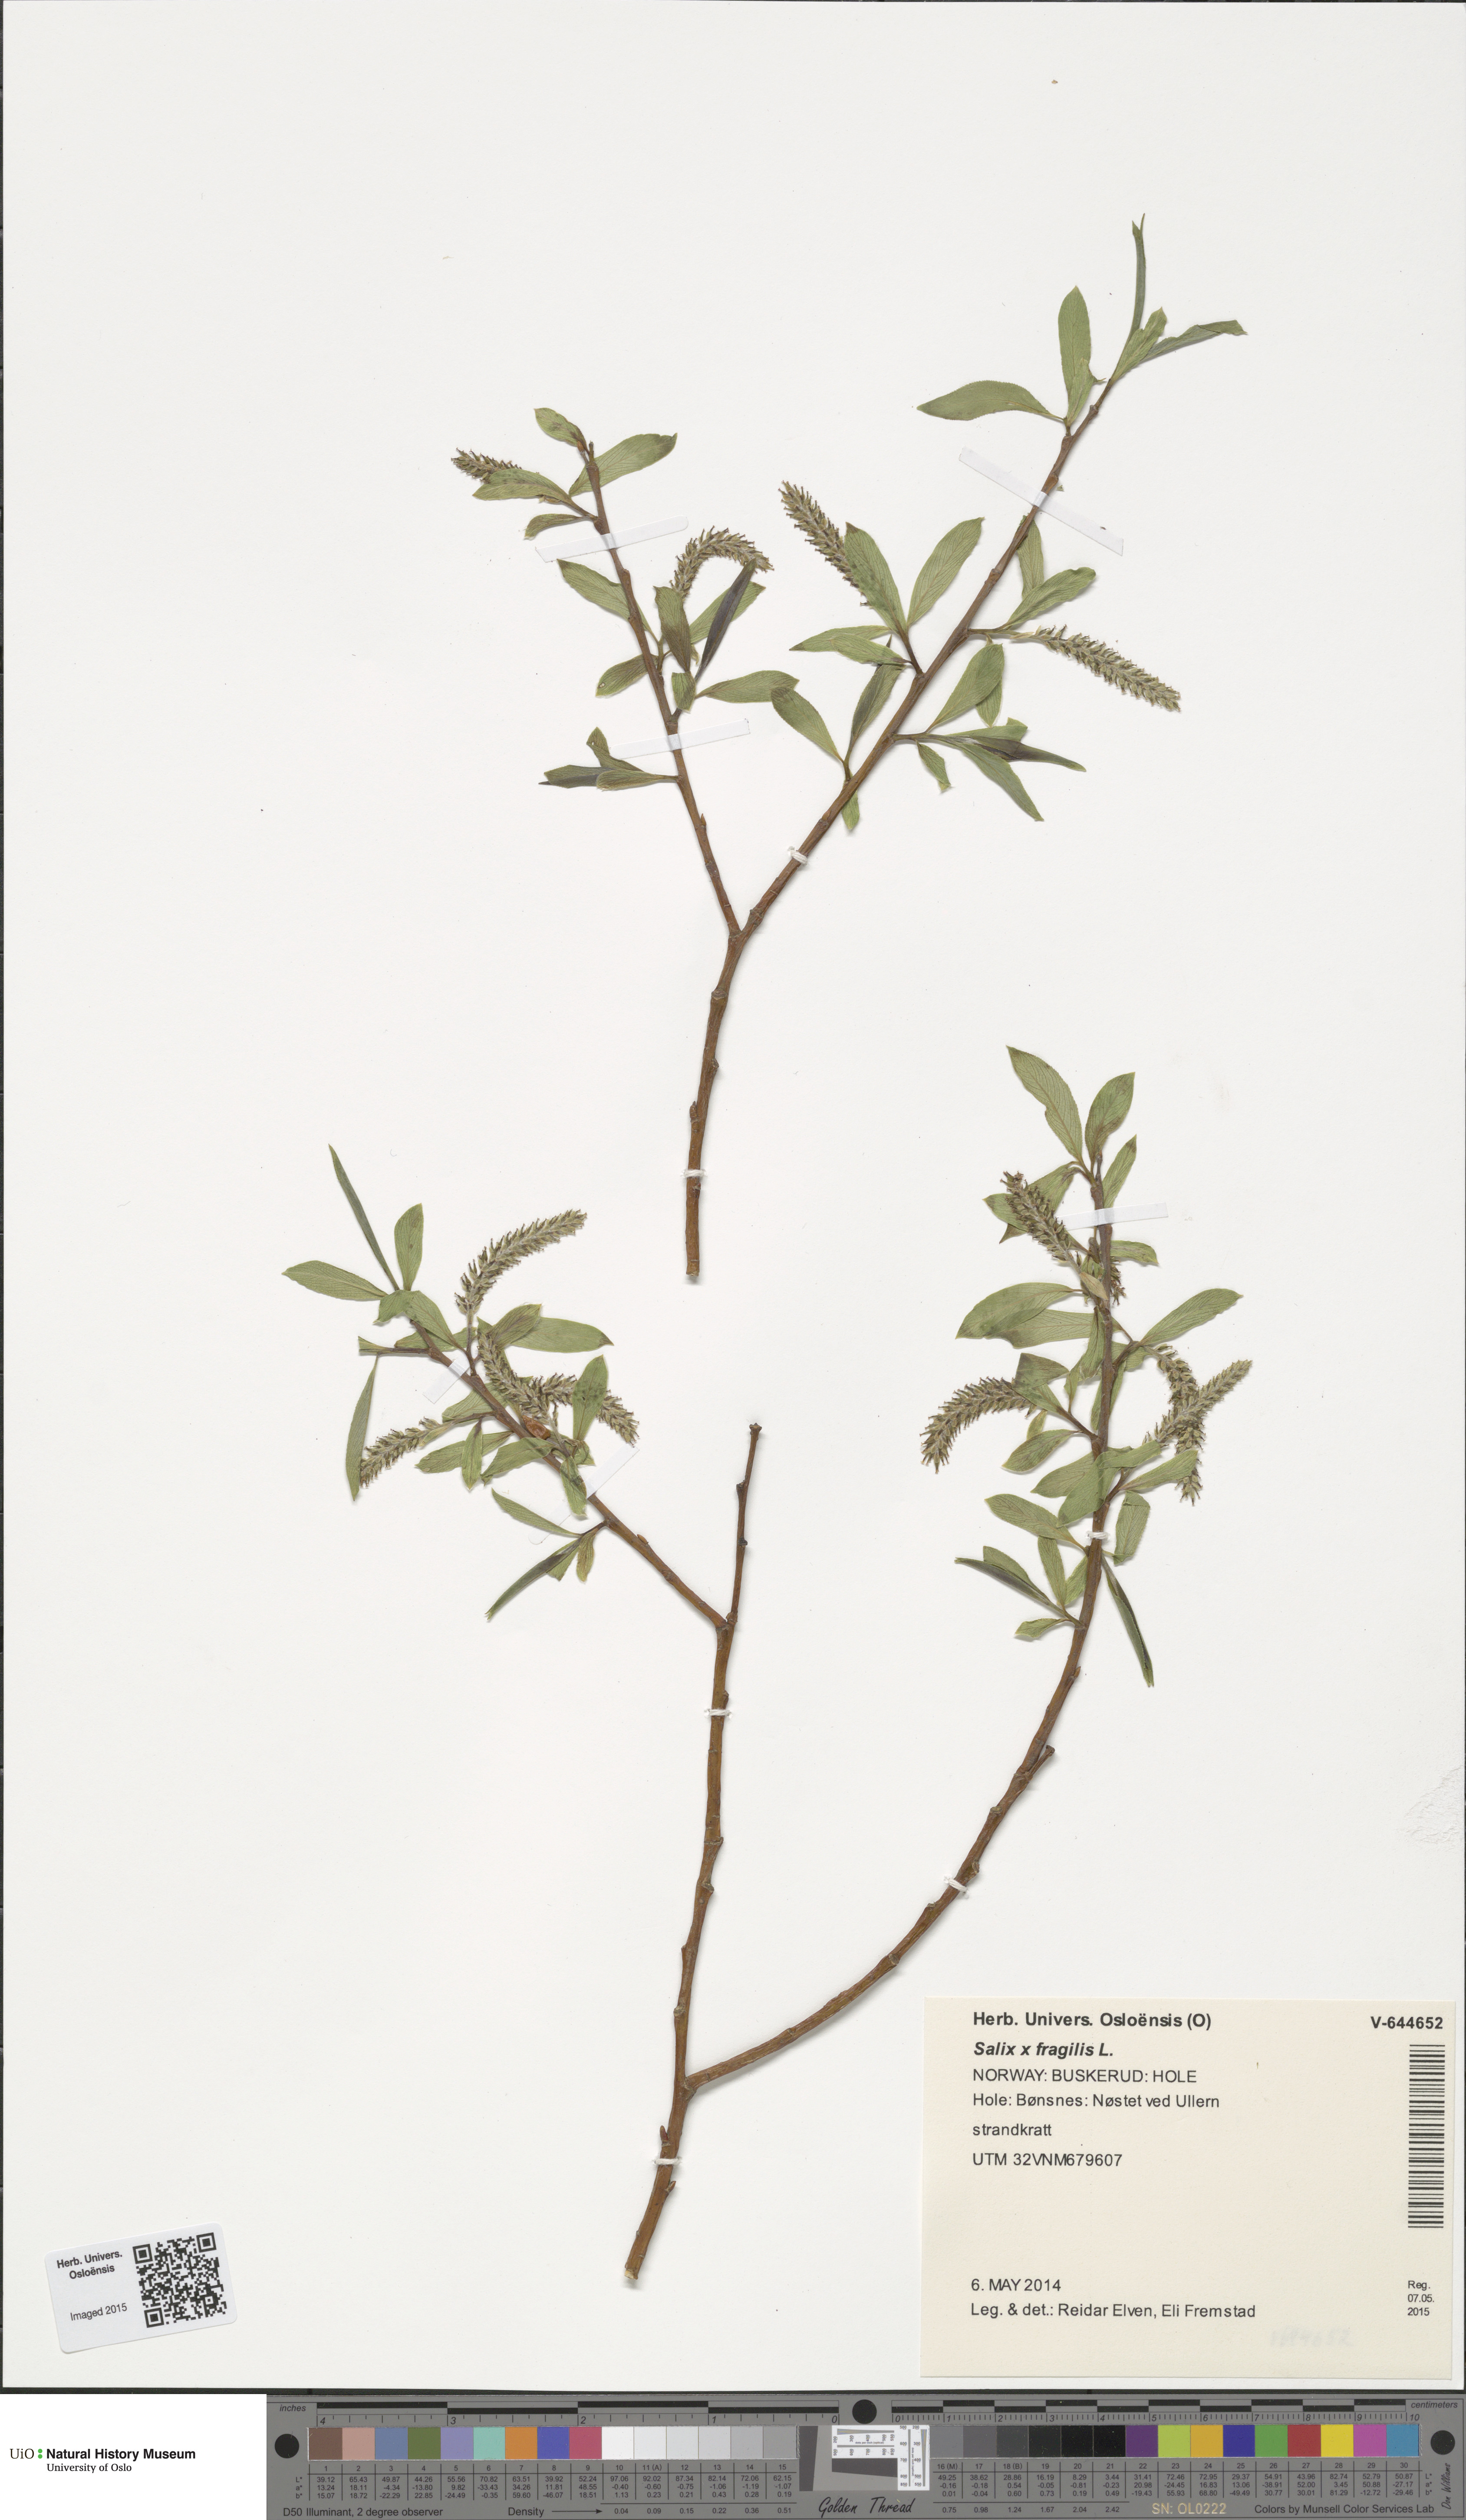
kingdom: Plantae
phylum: Tracheophyta
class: Magnoliopsida
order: Malpighiales
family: Salicaceae
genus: Salix
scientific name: Salix fragilis
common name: Crack willow
